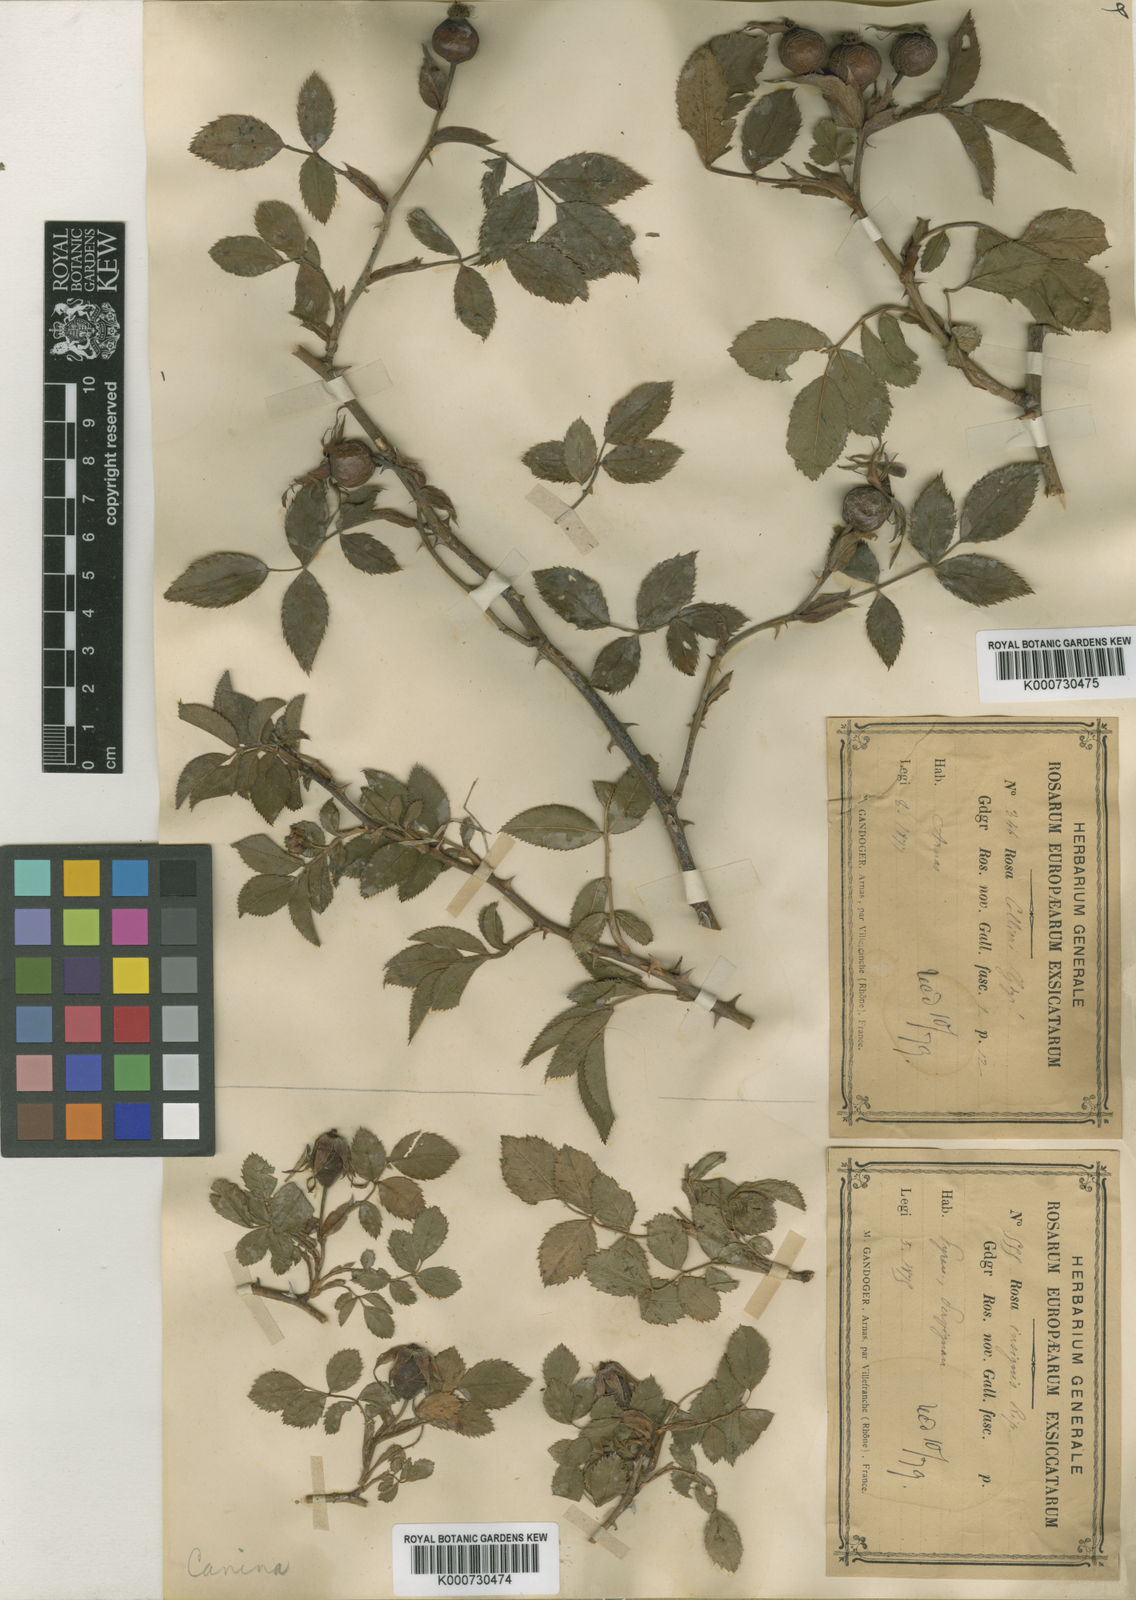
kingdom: Plantae
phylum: Tracheophyta
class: Magnoliopsida
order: Rosales
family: Rosaceae
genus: Rosa
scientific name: Rosa canina
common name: Dog rose
